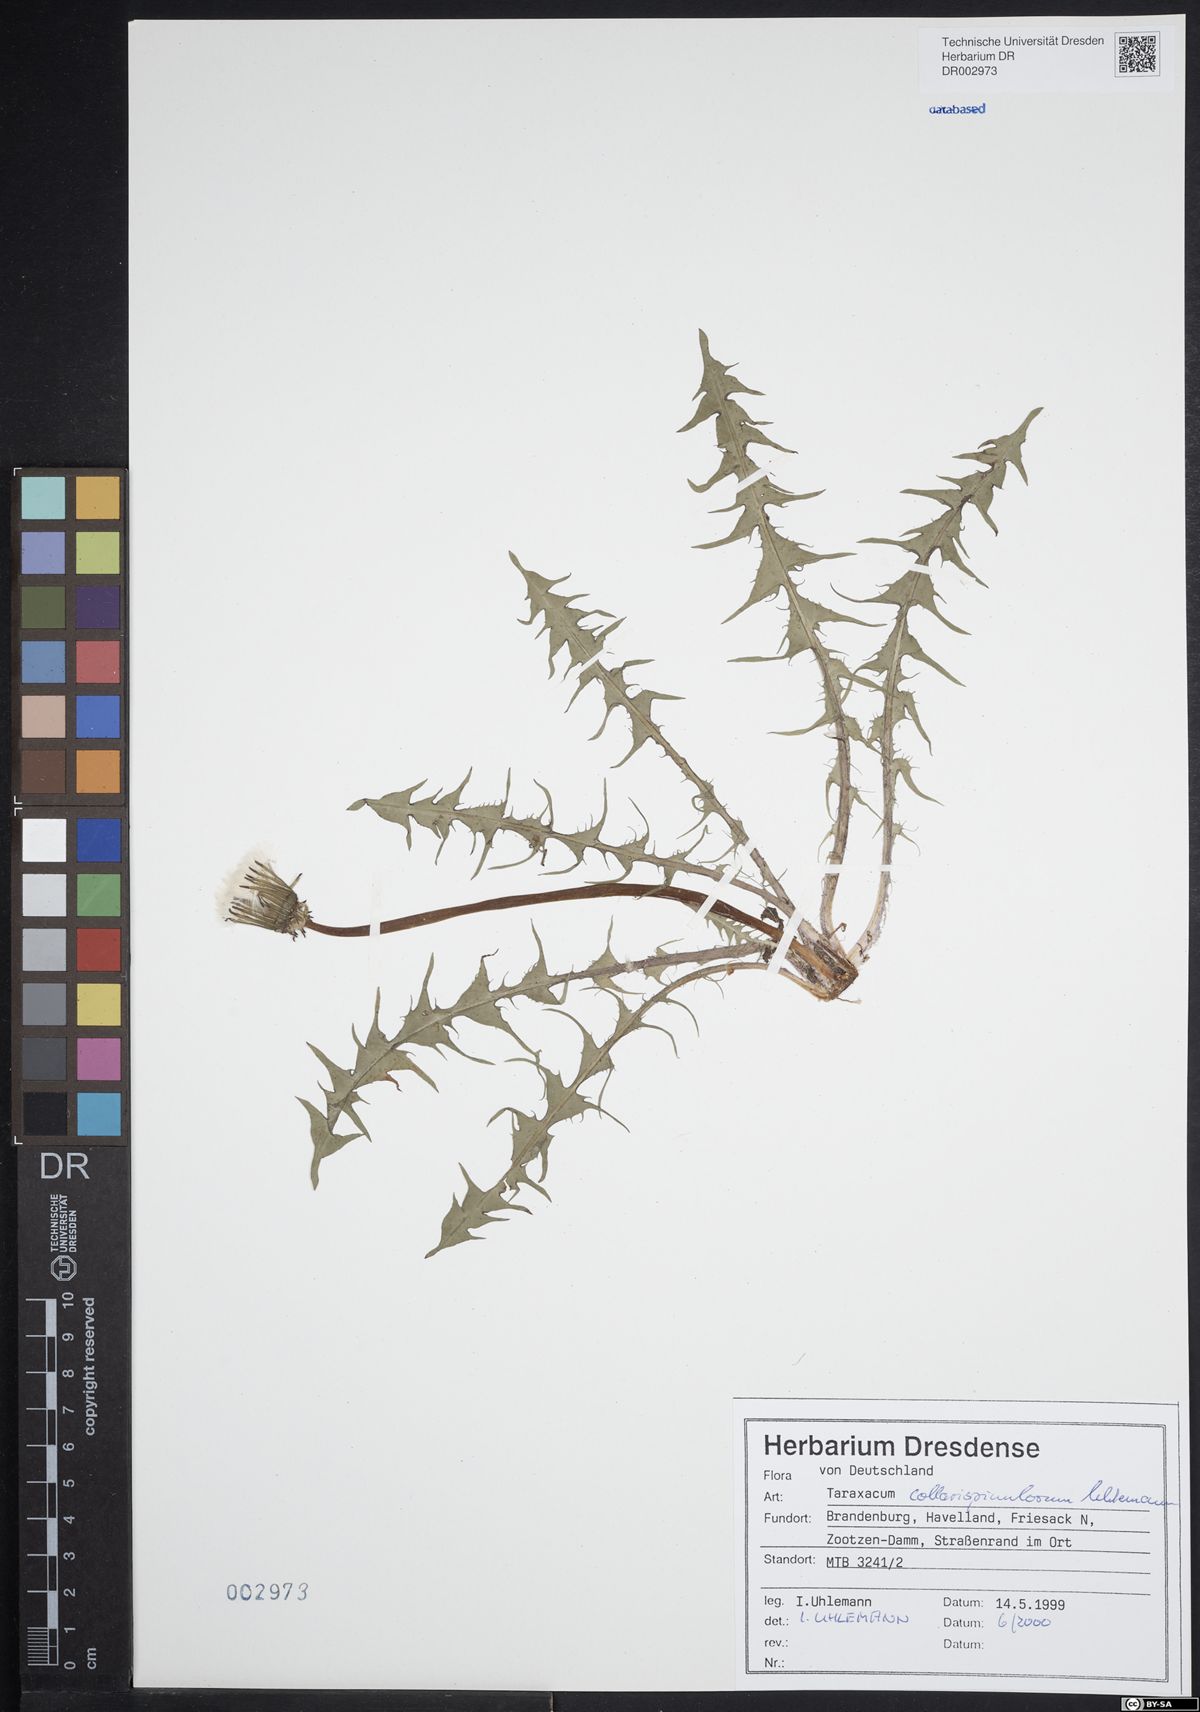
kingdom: Plantae
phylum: Tracheophyta
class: Magnoliopsida
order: Asterales
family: Asteraceae
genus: Taraxacum
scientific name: Taraxacum collarispinulosum
